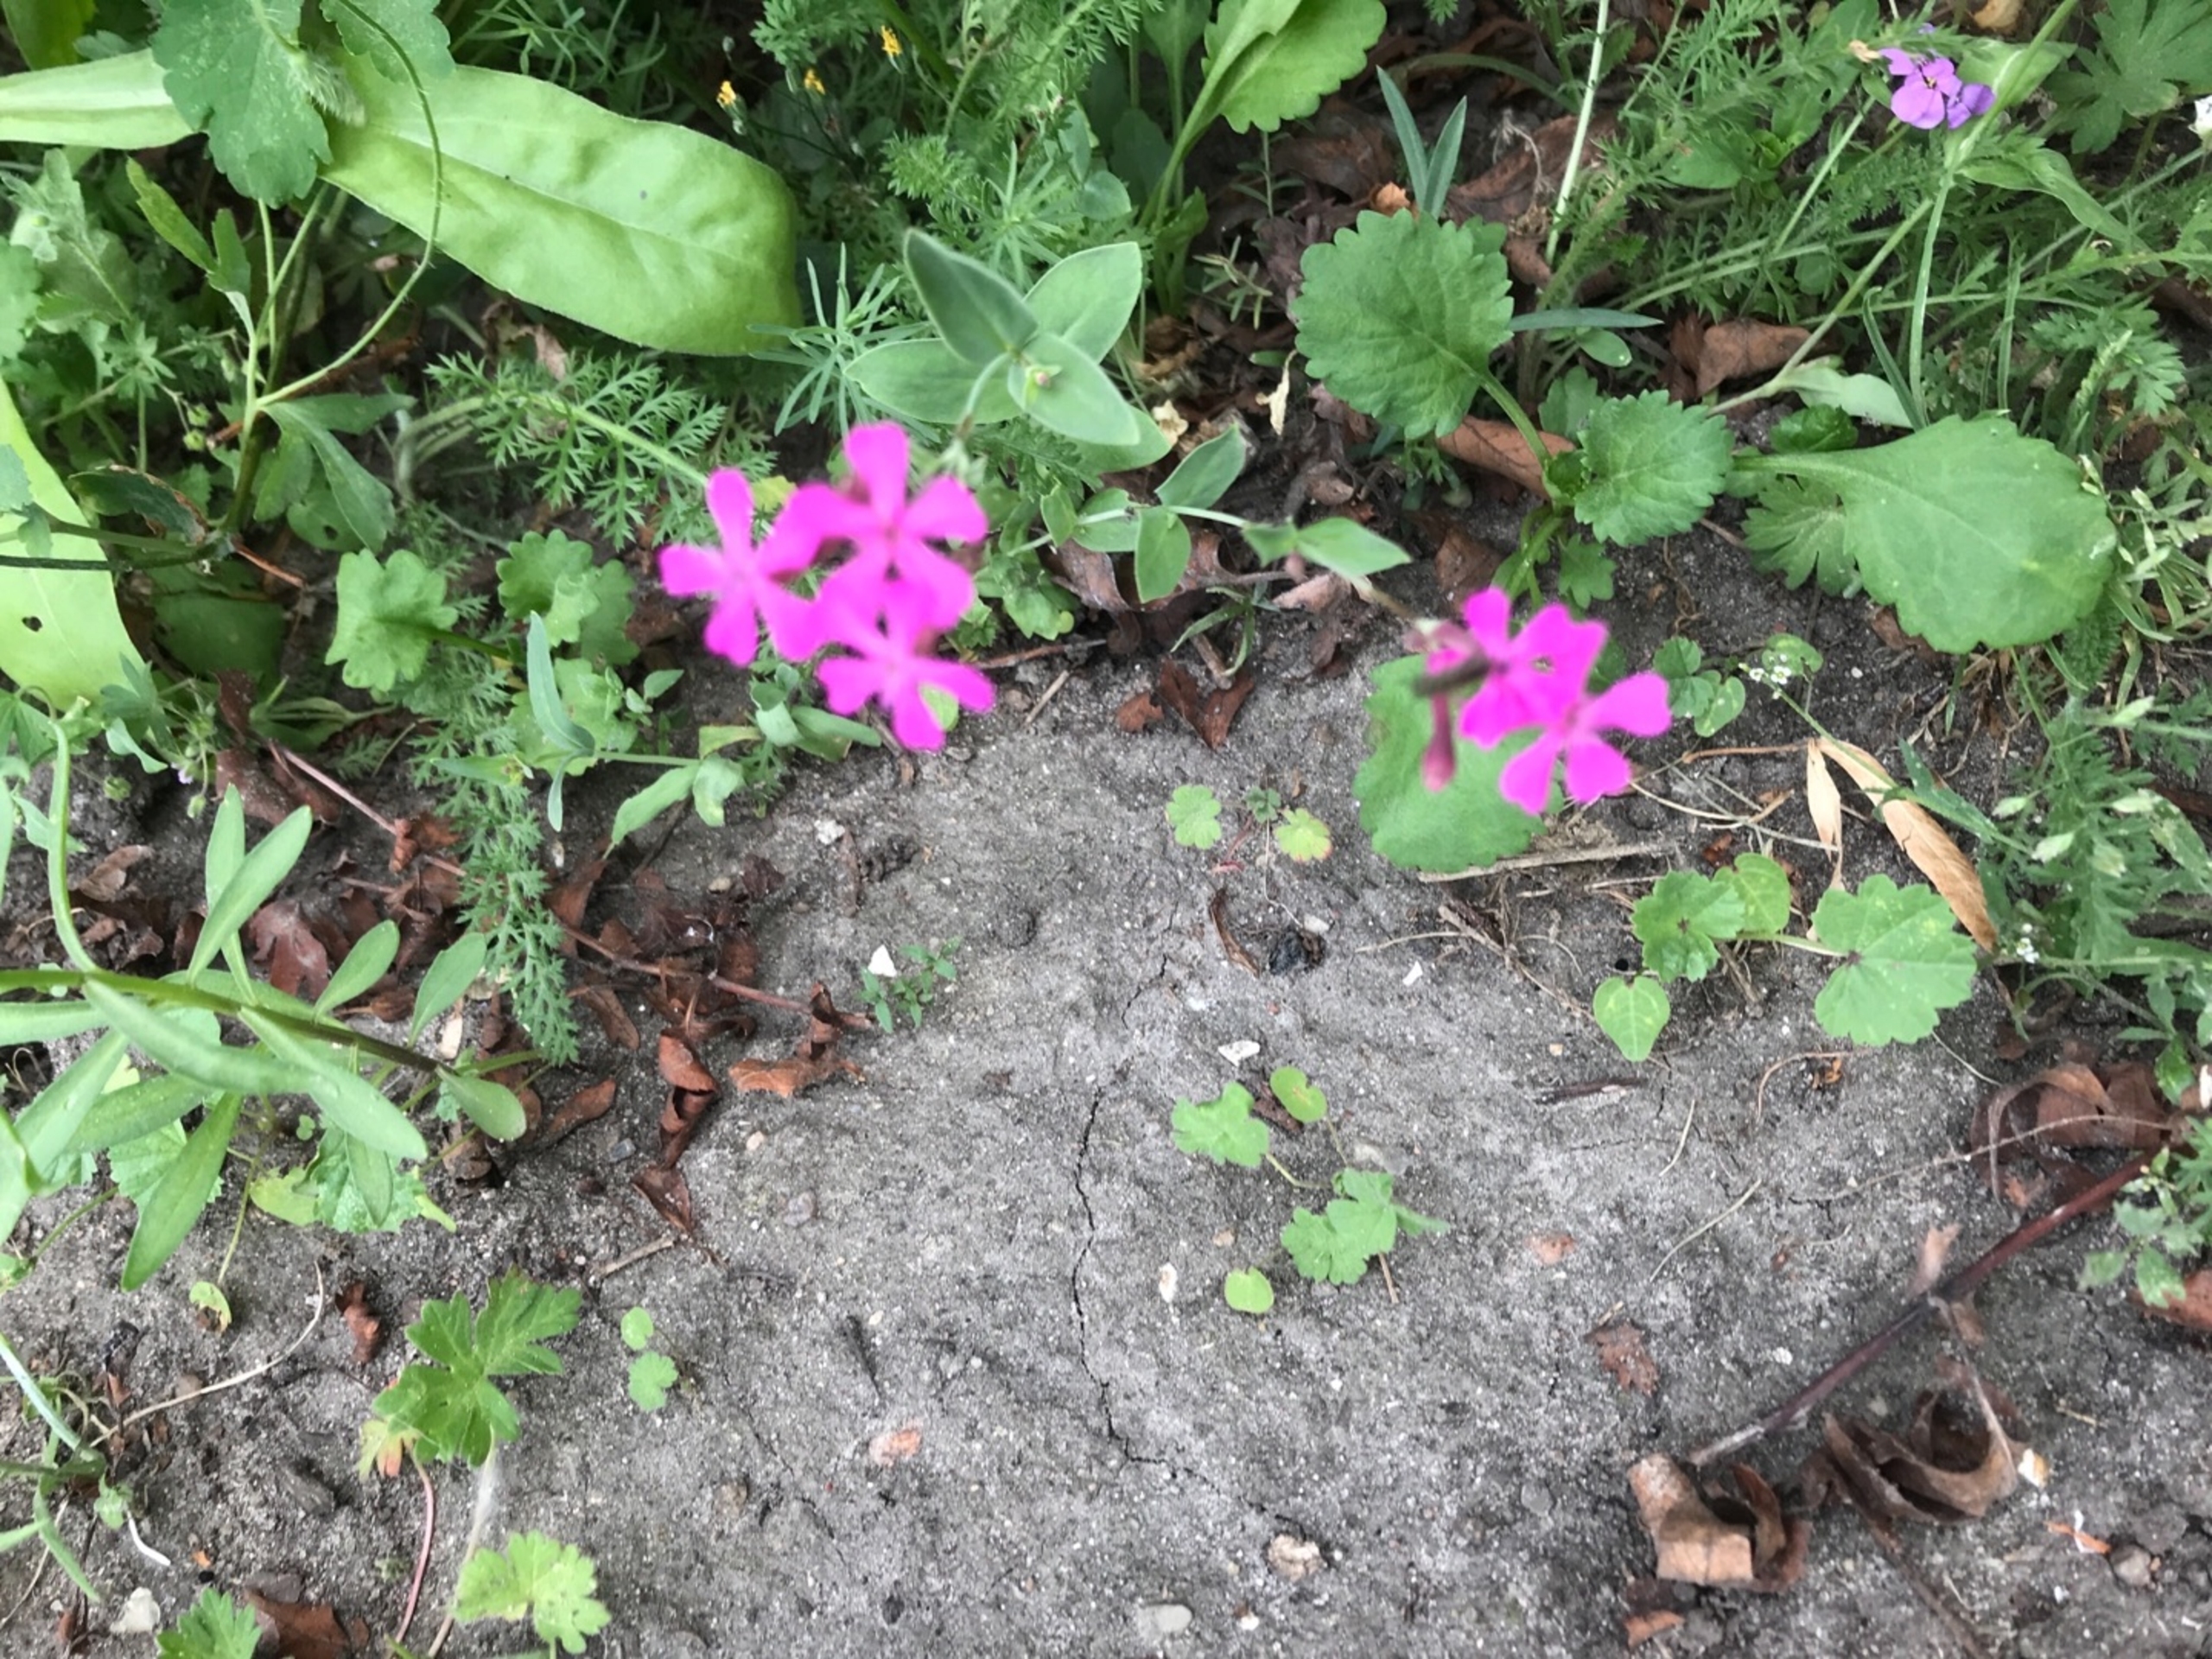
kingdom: Plantae
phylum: Tracheophyta
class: Magnoliopsida
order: Brassicales
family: Brassicaceae
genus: Iberis
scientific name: Iberis umbellata
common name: Skærm-sløjfeblomst
